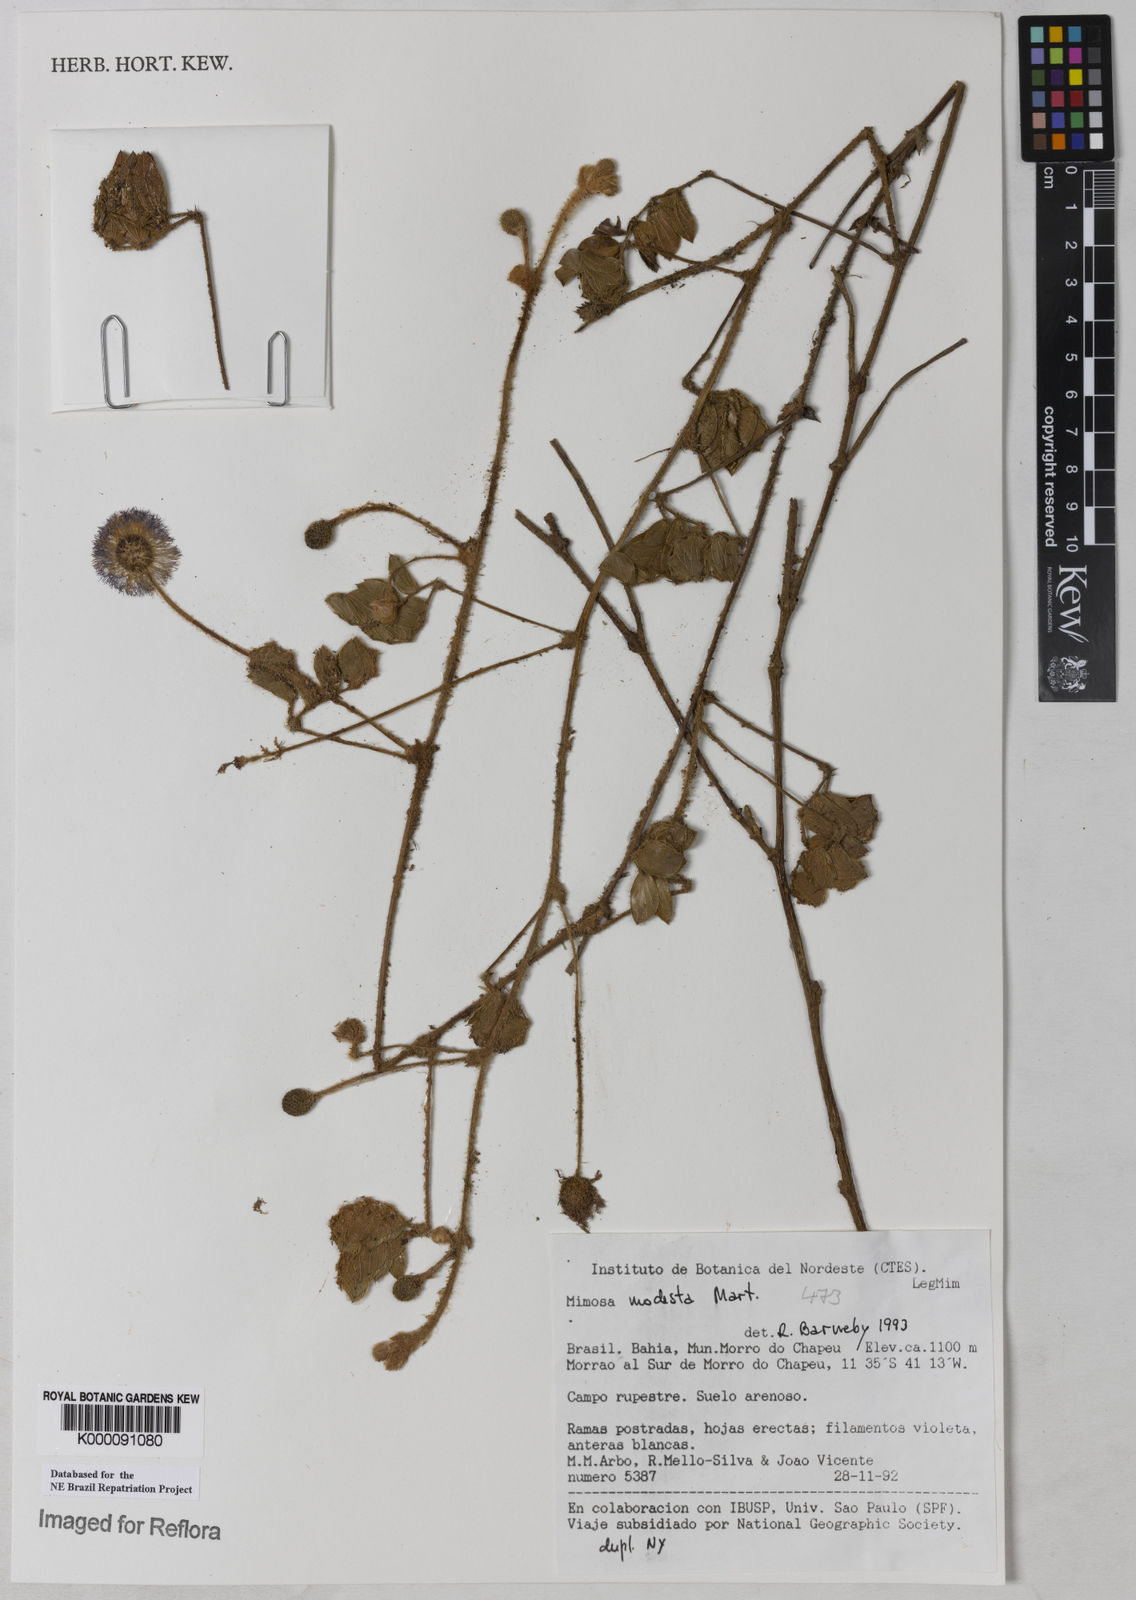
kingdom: Plantae
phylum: Tracheophyta
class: Magnoliopsida
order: Fabales
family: Fabaceae
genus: Mimosa
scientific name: Mimosa modesta
